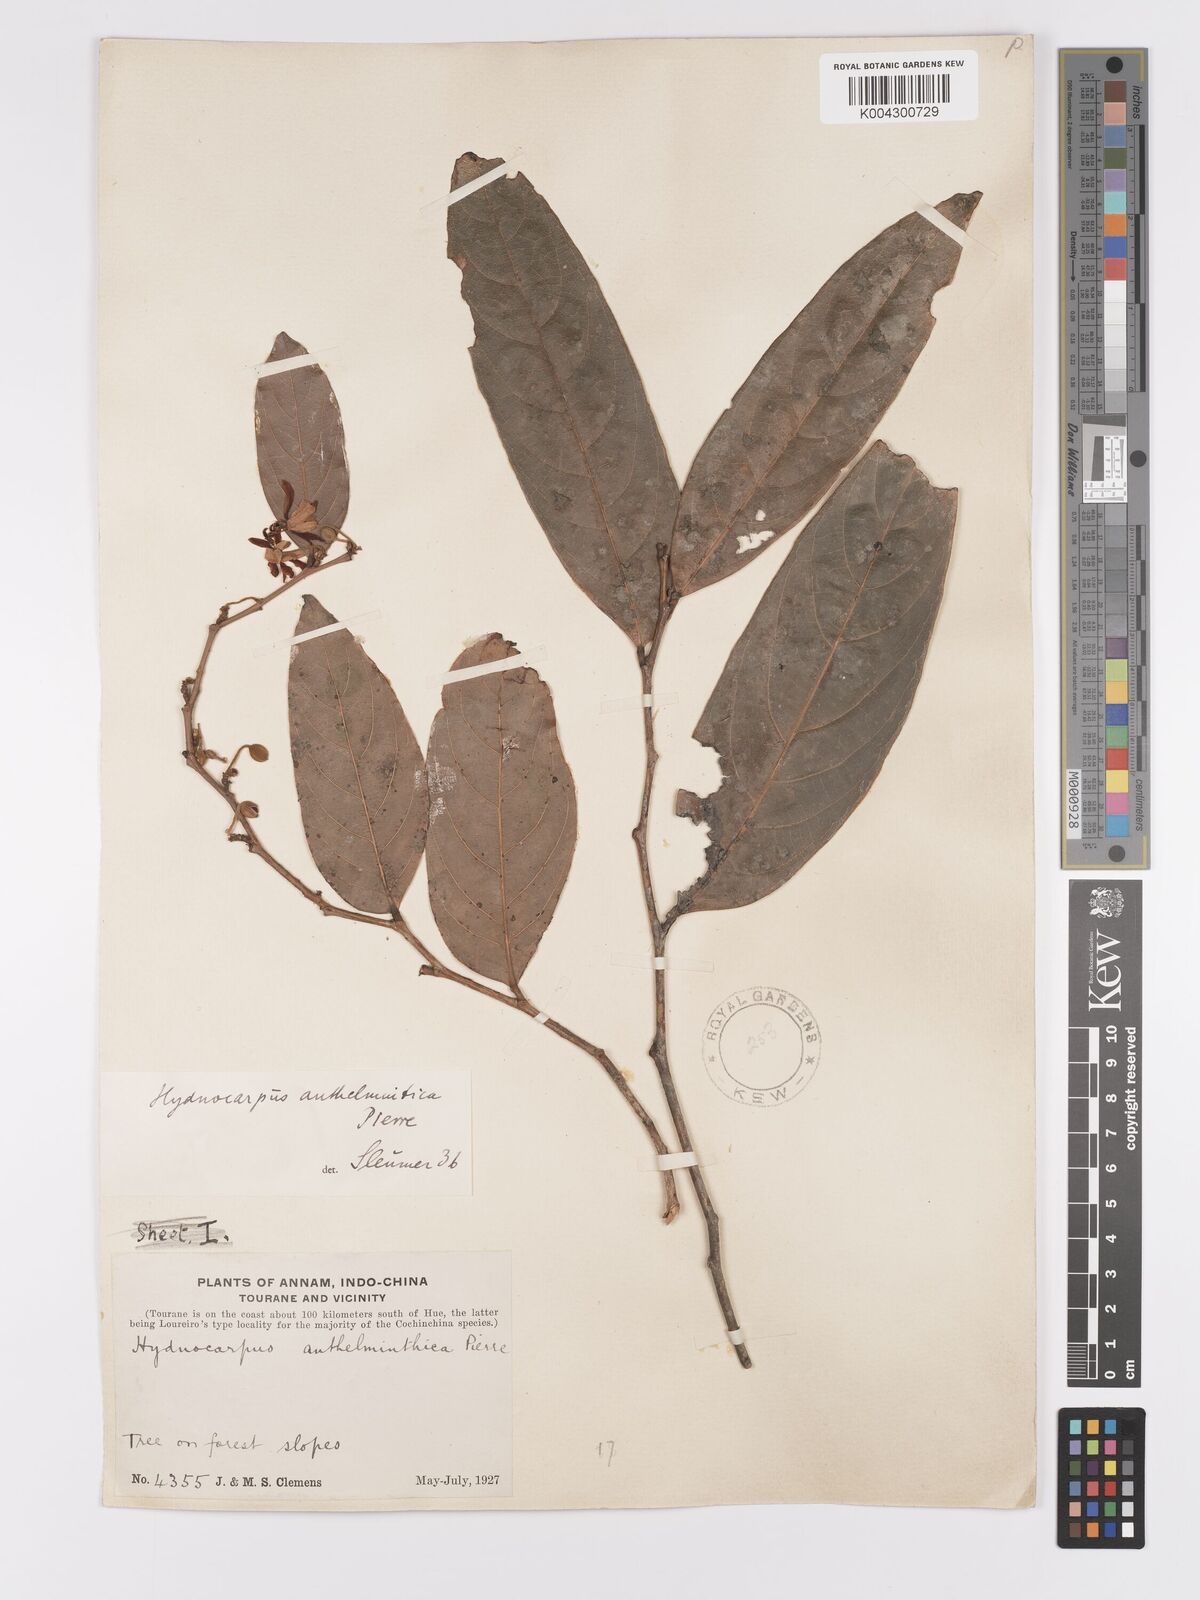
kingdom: Plantae
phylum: Tracheophyta
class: Magnoliopsida
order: Malpighiales
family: Achariaceae
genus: Hydnocarpus
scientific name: Hydnocarpus
